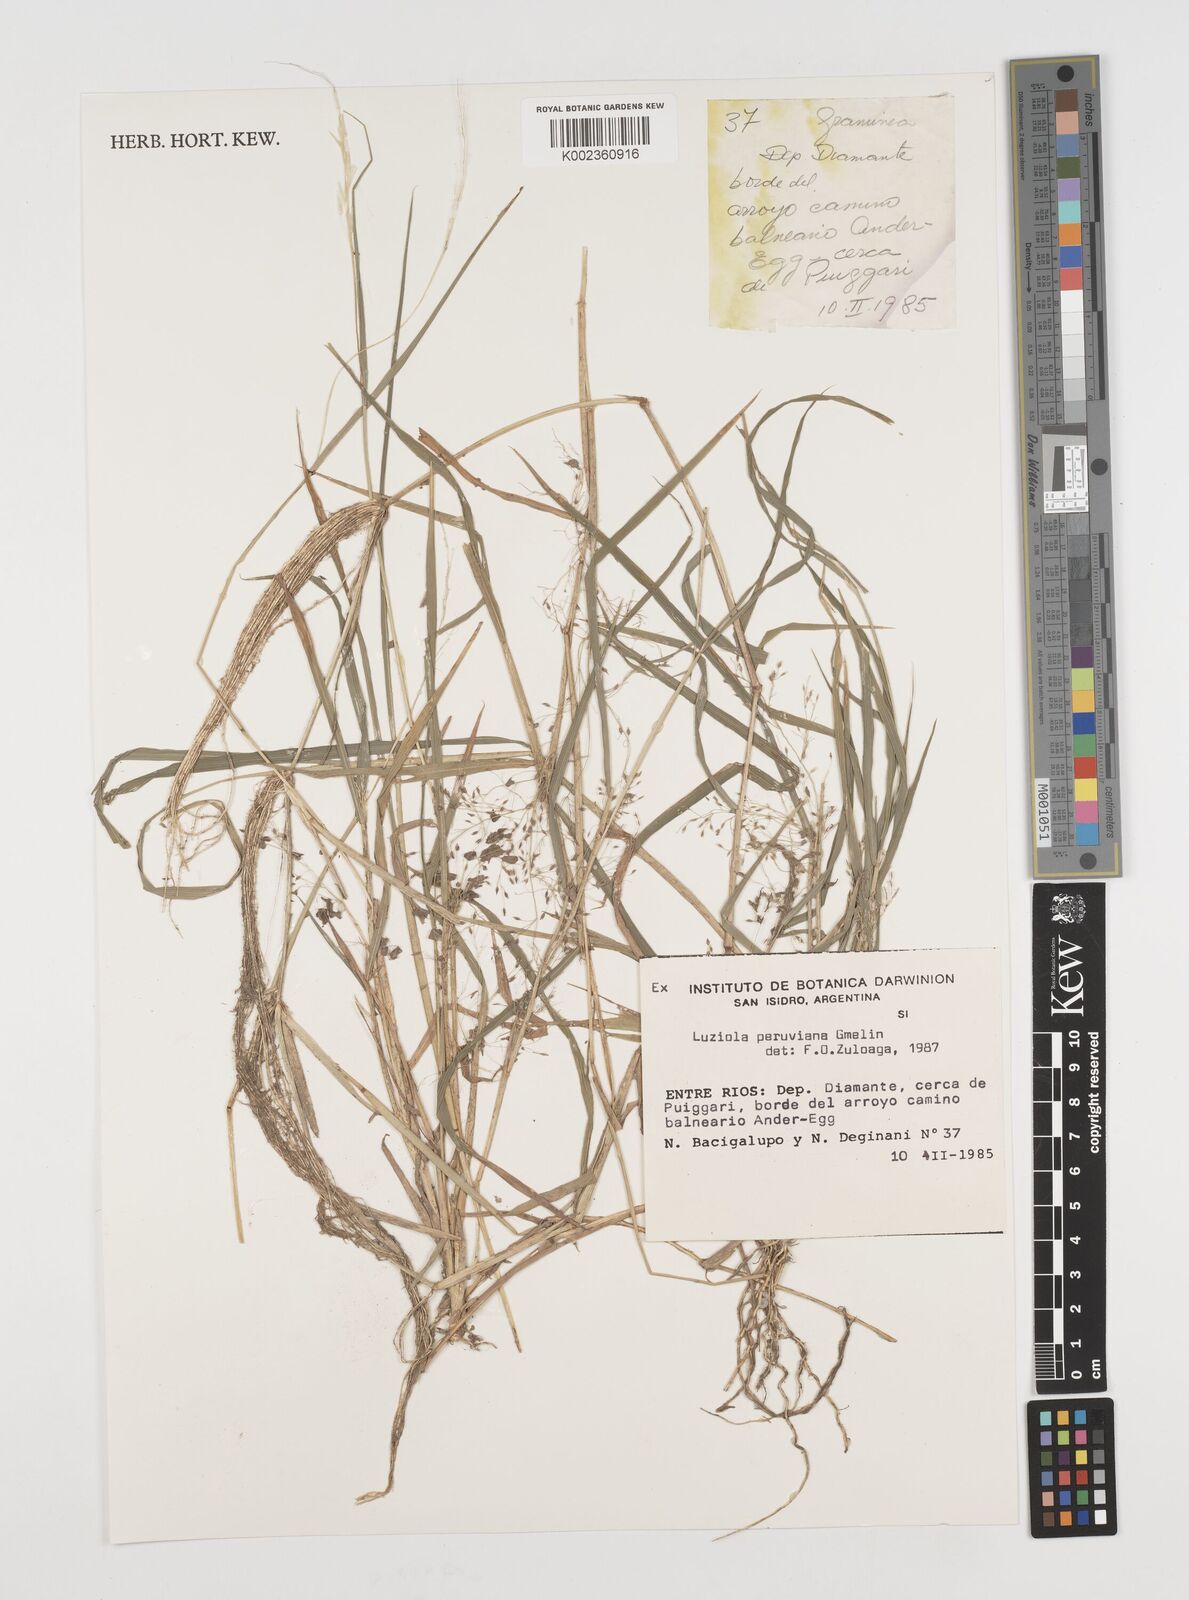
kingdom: Plantae
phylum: Tracheophyta
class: Liliopsida
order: Poales
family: Poaceae
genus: Luziola
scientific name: Luziola peruviana
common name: Peruvian watergrass
